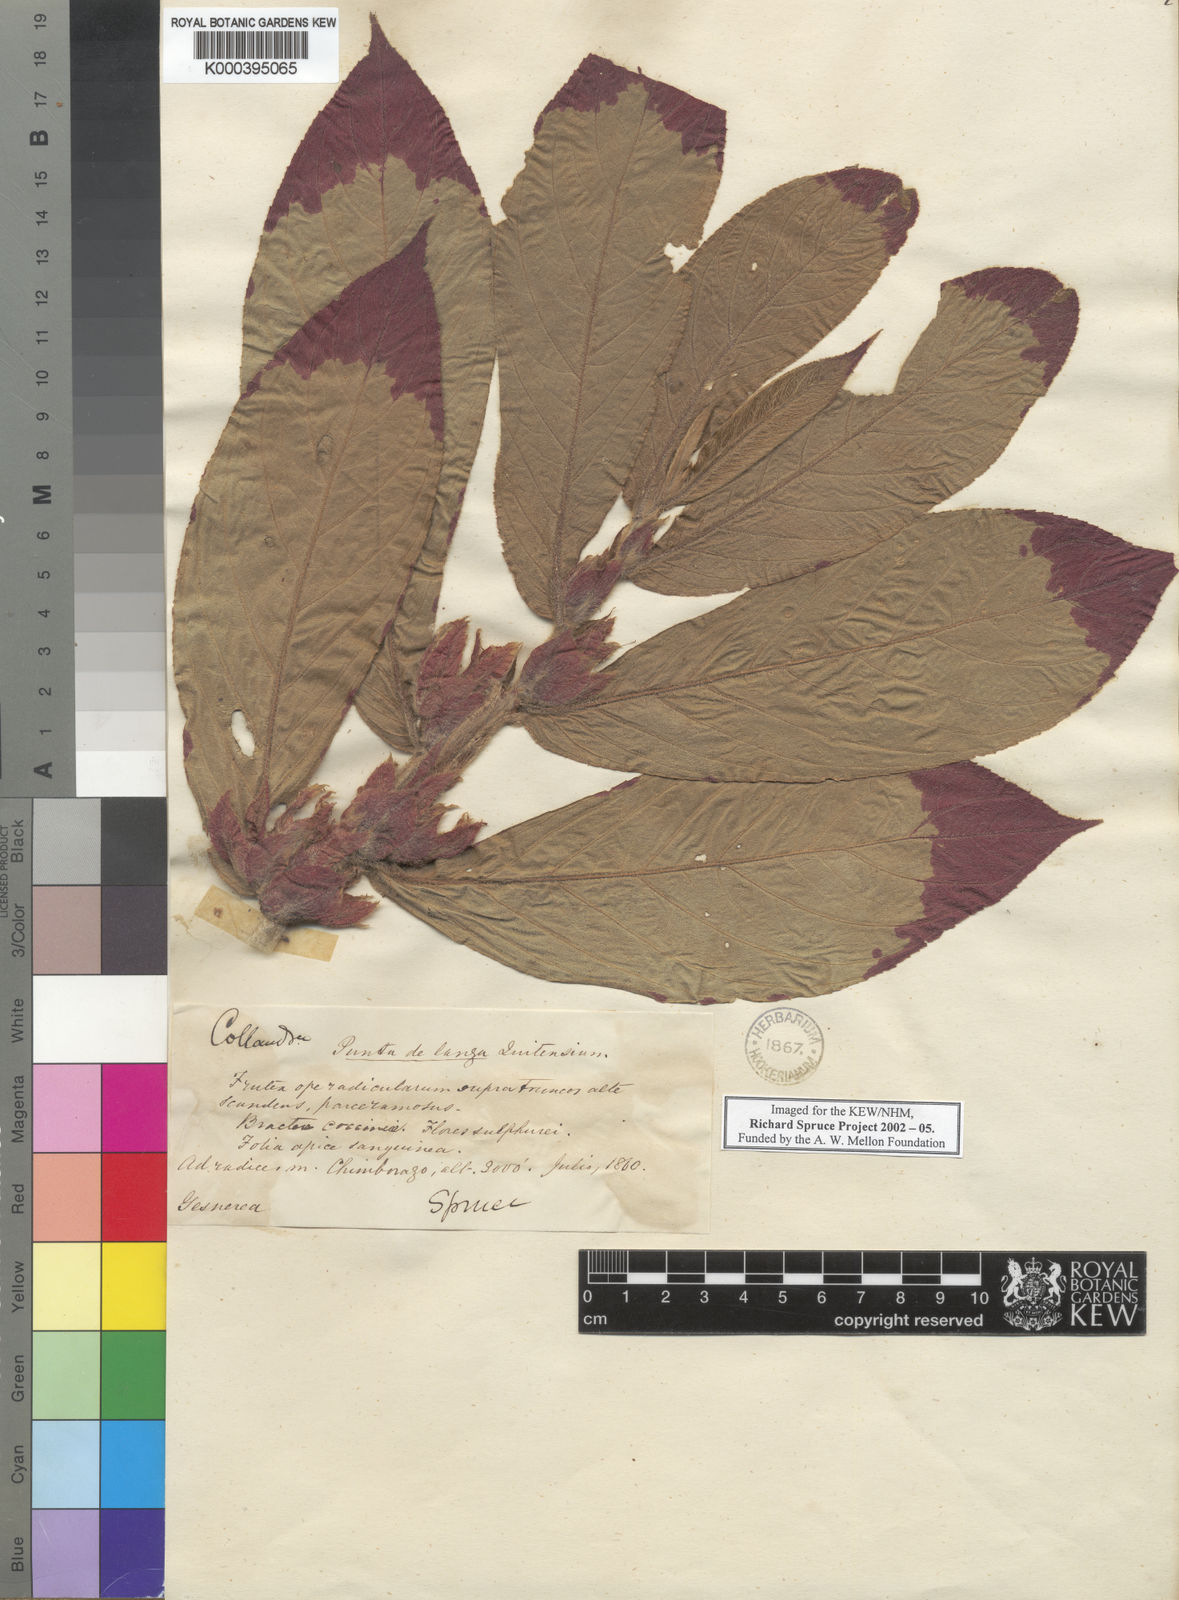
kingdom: Plantae
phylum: Tracheophyta
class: Magnoliopsida
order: Lamiales
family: Gesneriaceae
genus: Columnea
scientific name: Columnea
